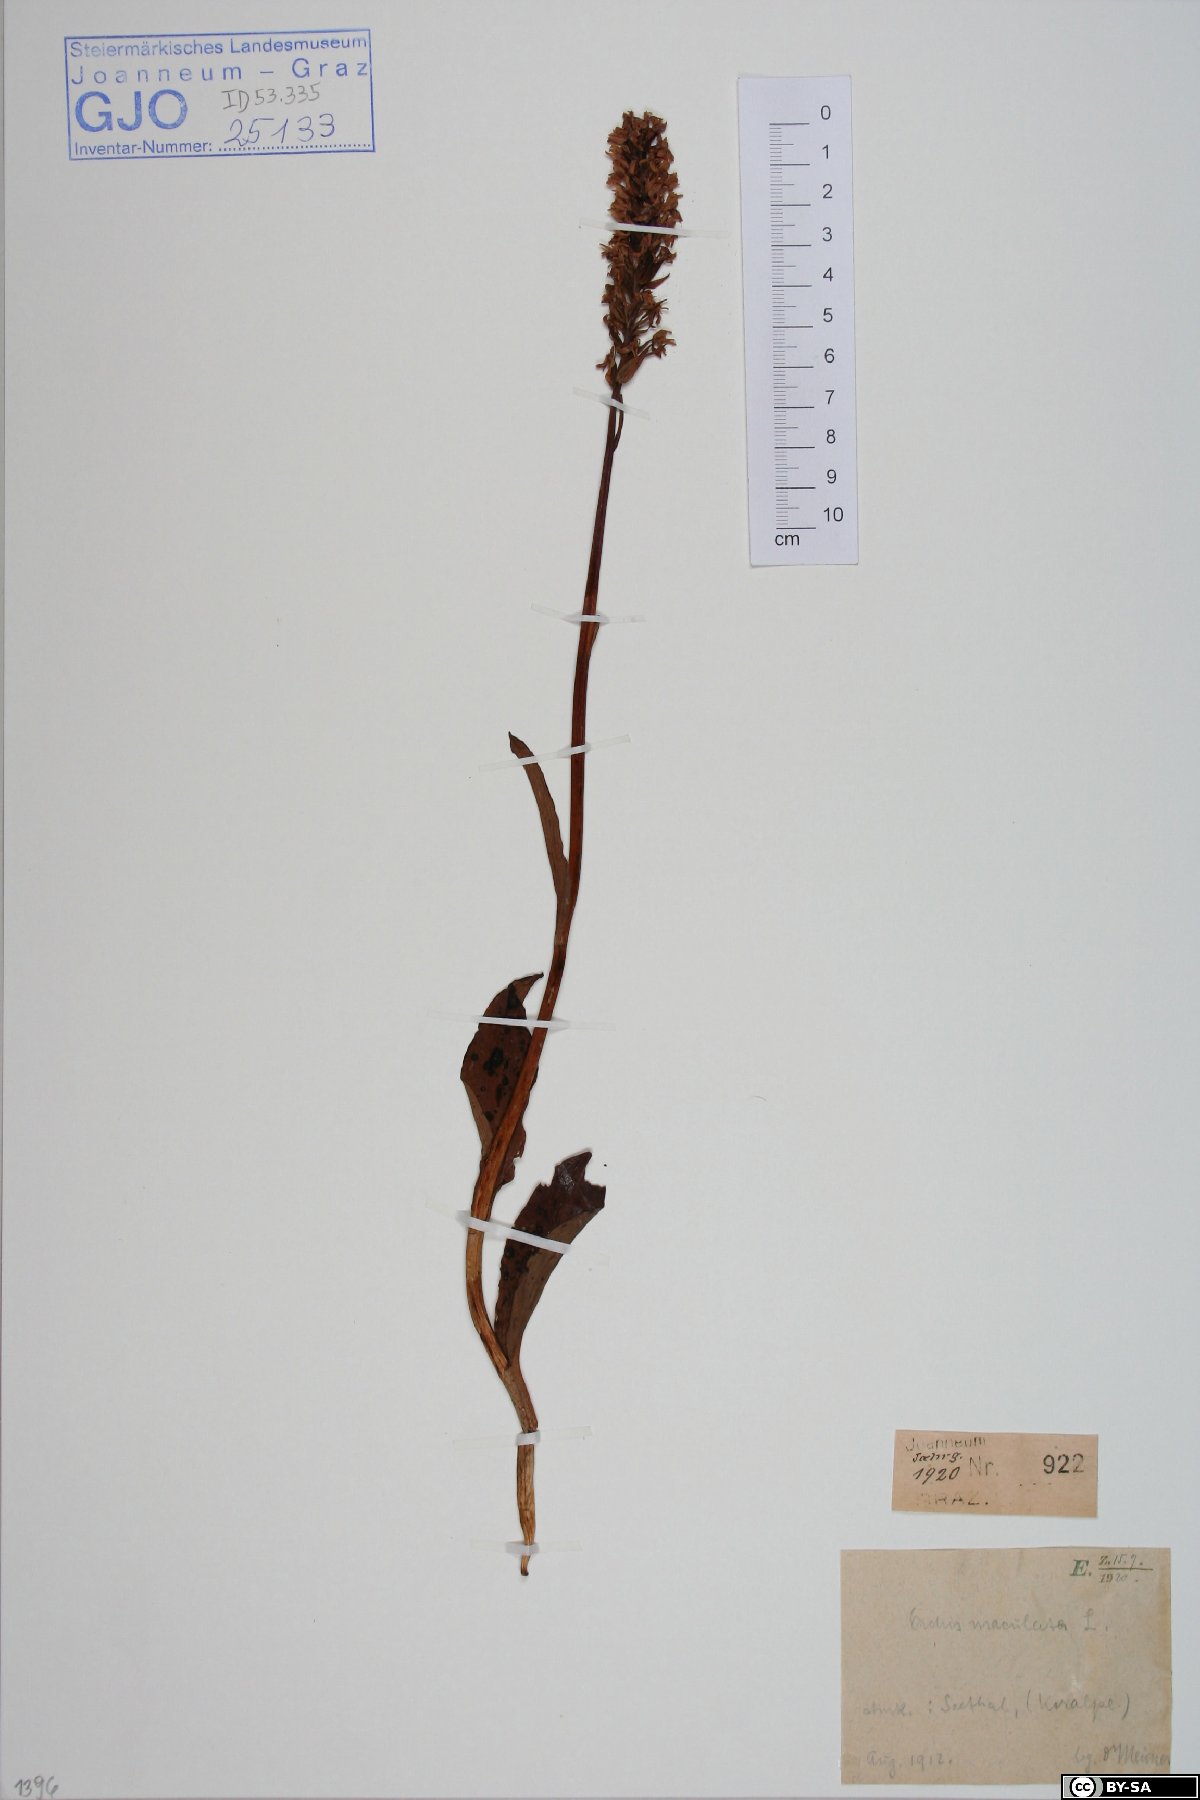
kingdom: Plantae
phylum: Tracheophyta
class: Liliopsida
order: Asparagales
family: Orchidaceae
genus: Dactylorhiza
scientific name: Dactylorhiza maculata
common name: Heath spotted-orchid
